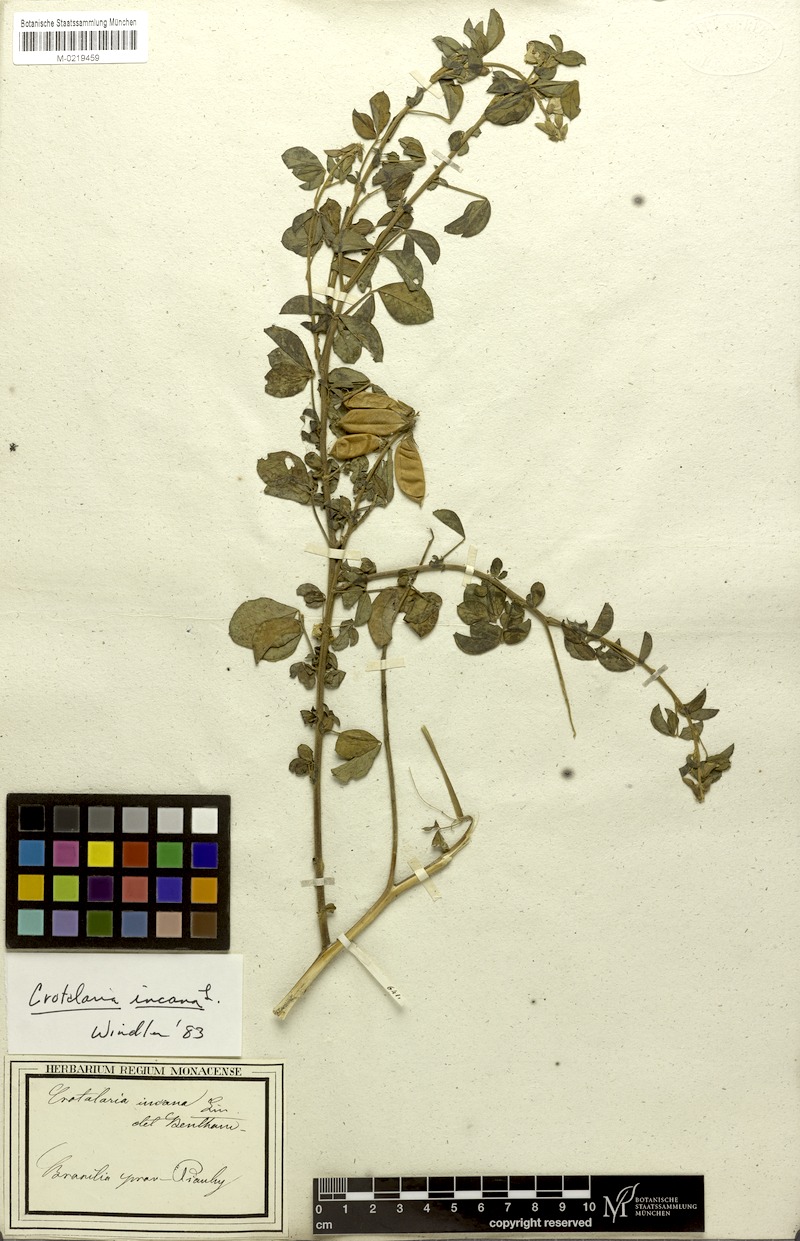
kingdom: Plantae
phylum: Tracheophyta
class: Magnoliopsida
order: Fabales
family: Fabaceae
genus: Crotalaria
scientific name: Crotalaria incana
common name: Shakeshake
